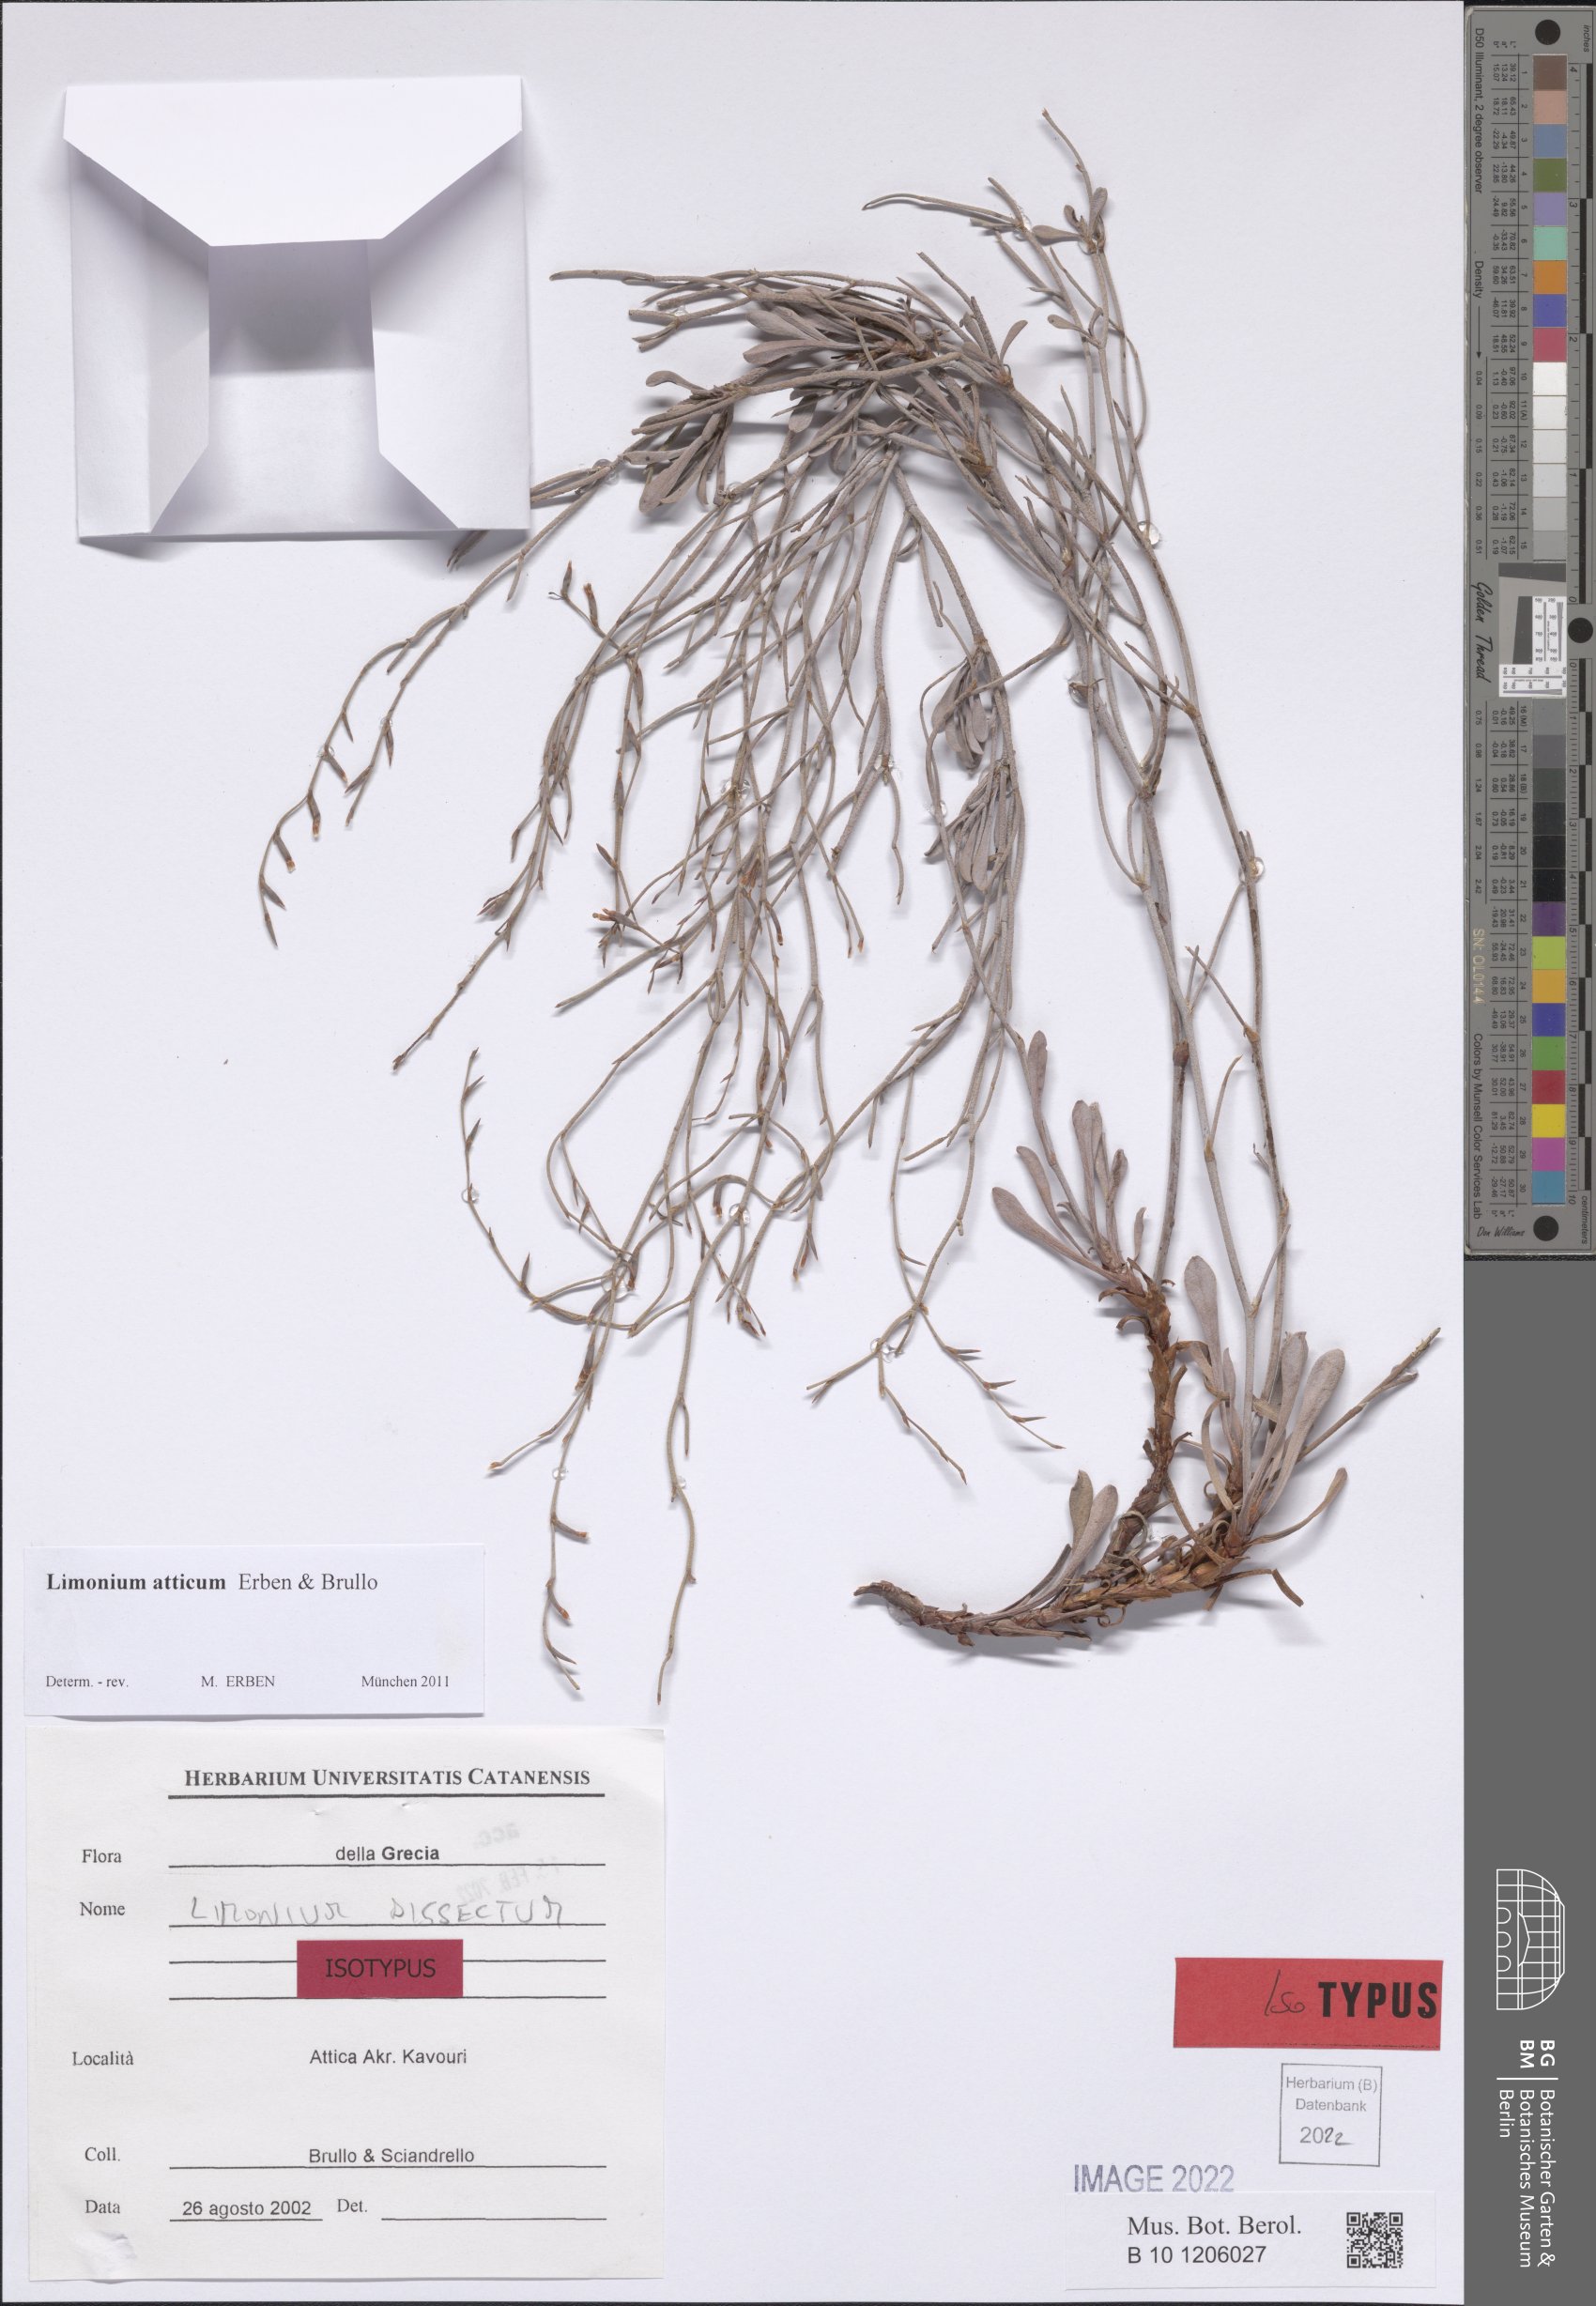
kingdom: Plantae
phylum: Tracheophyta
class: Magnoliopsida
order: Caryophyllales
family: Plumbaginaceae
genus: Limonium
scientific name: Limonium atticum
